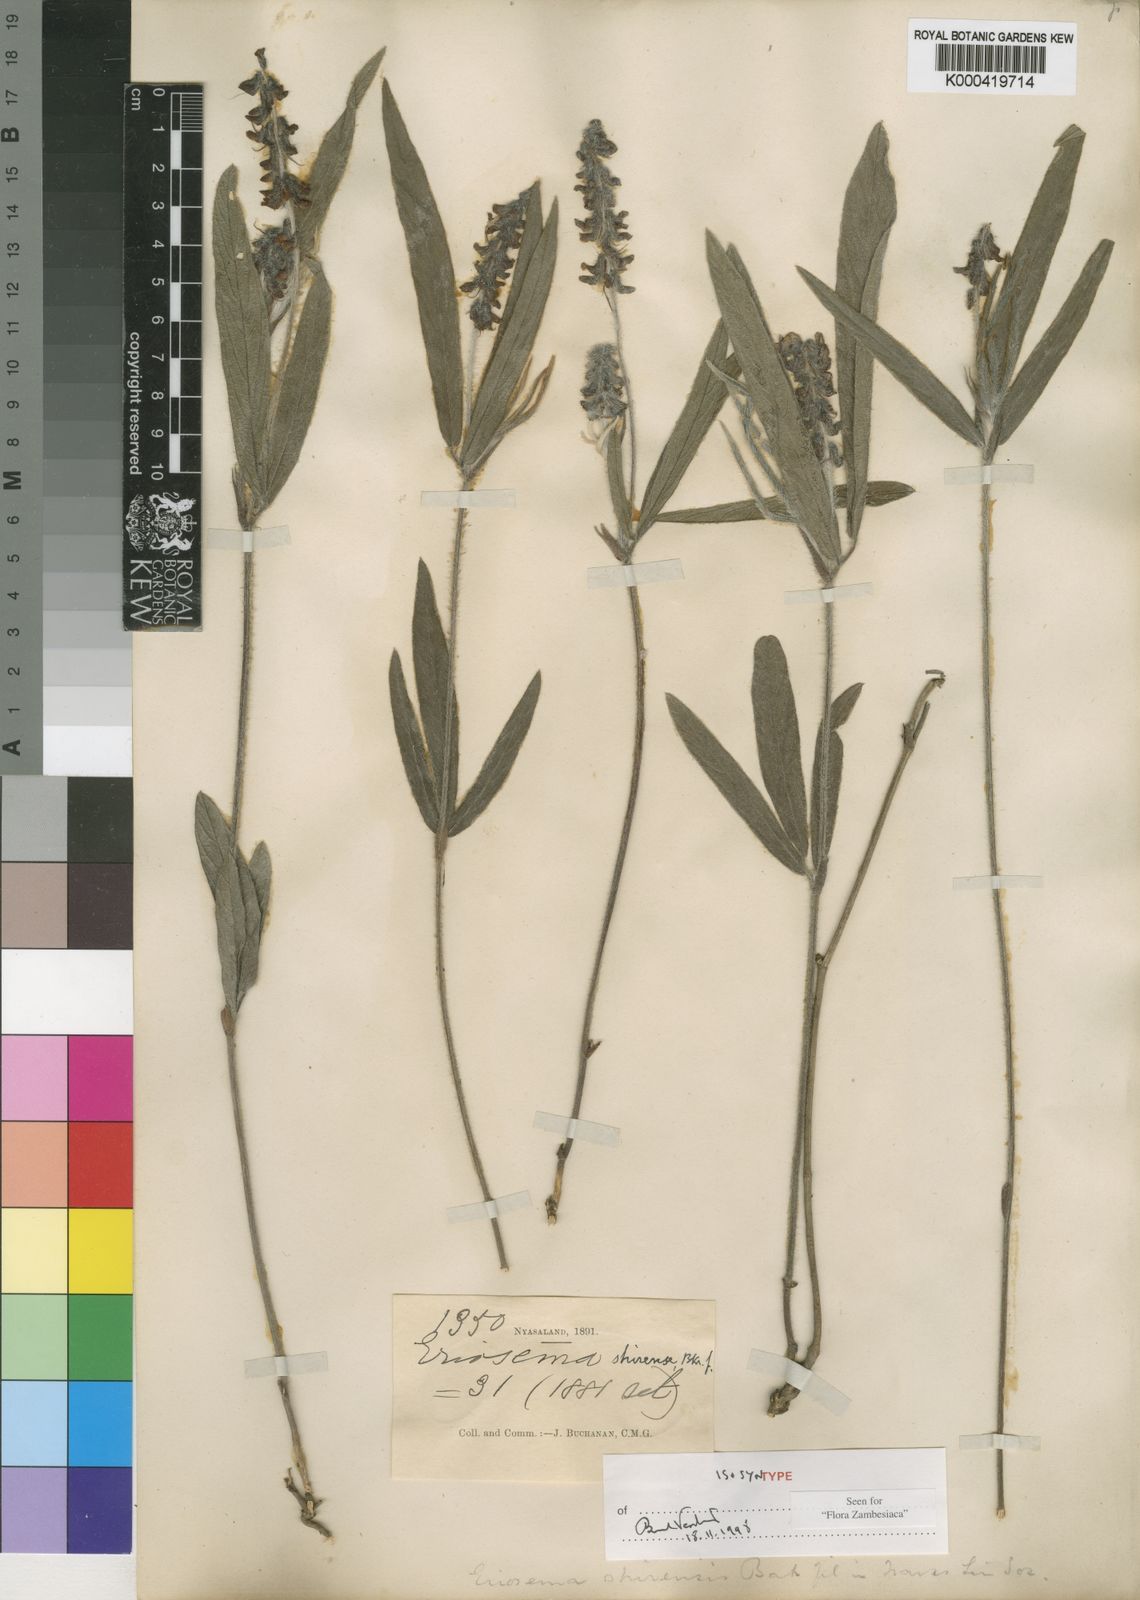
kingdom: Plantae
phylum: Tracheophyta
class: Magnoliopsida
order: Fabales
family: Fabaceae
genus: Eriosema
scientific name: Eriosema shirense
